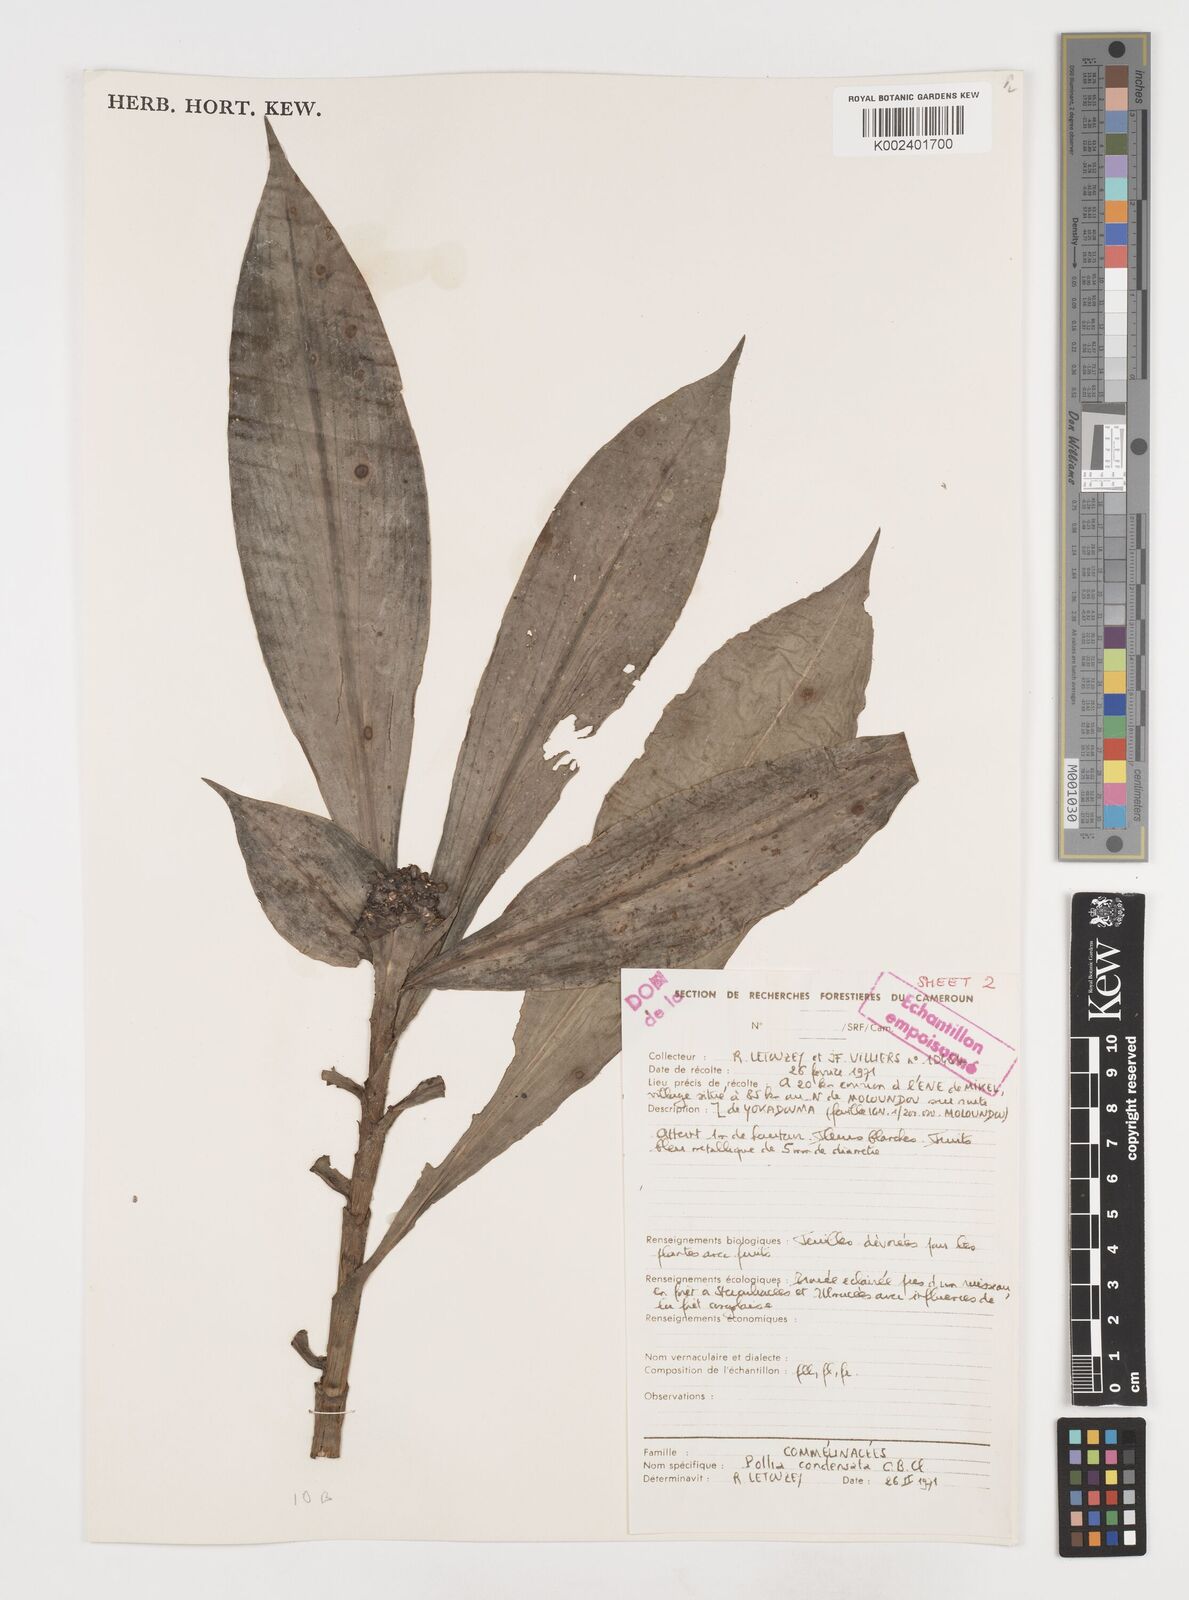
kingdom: Plantae
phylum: Tracheophyta
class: Liliopsida
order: Commelinales
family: Commelinaceae
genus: Pollia
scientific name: Pollia condensata
